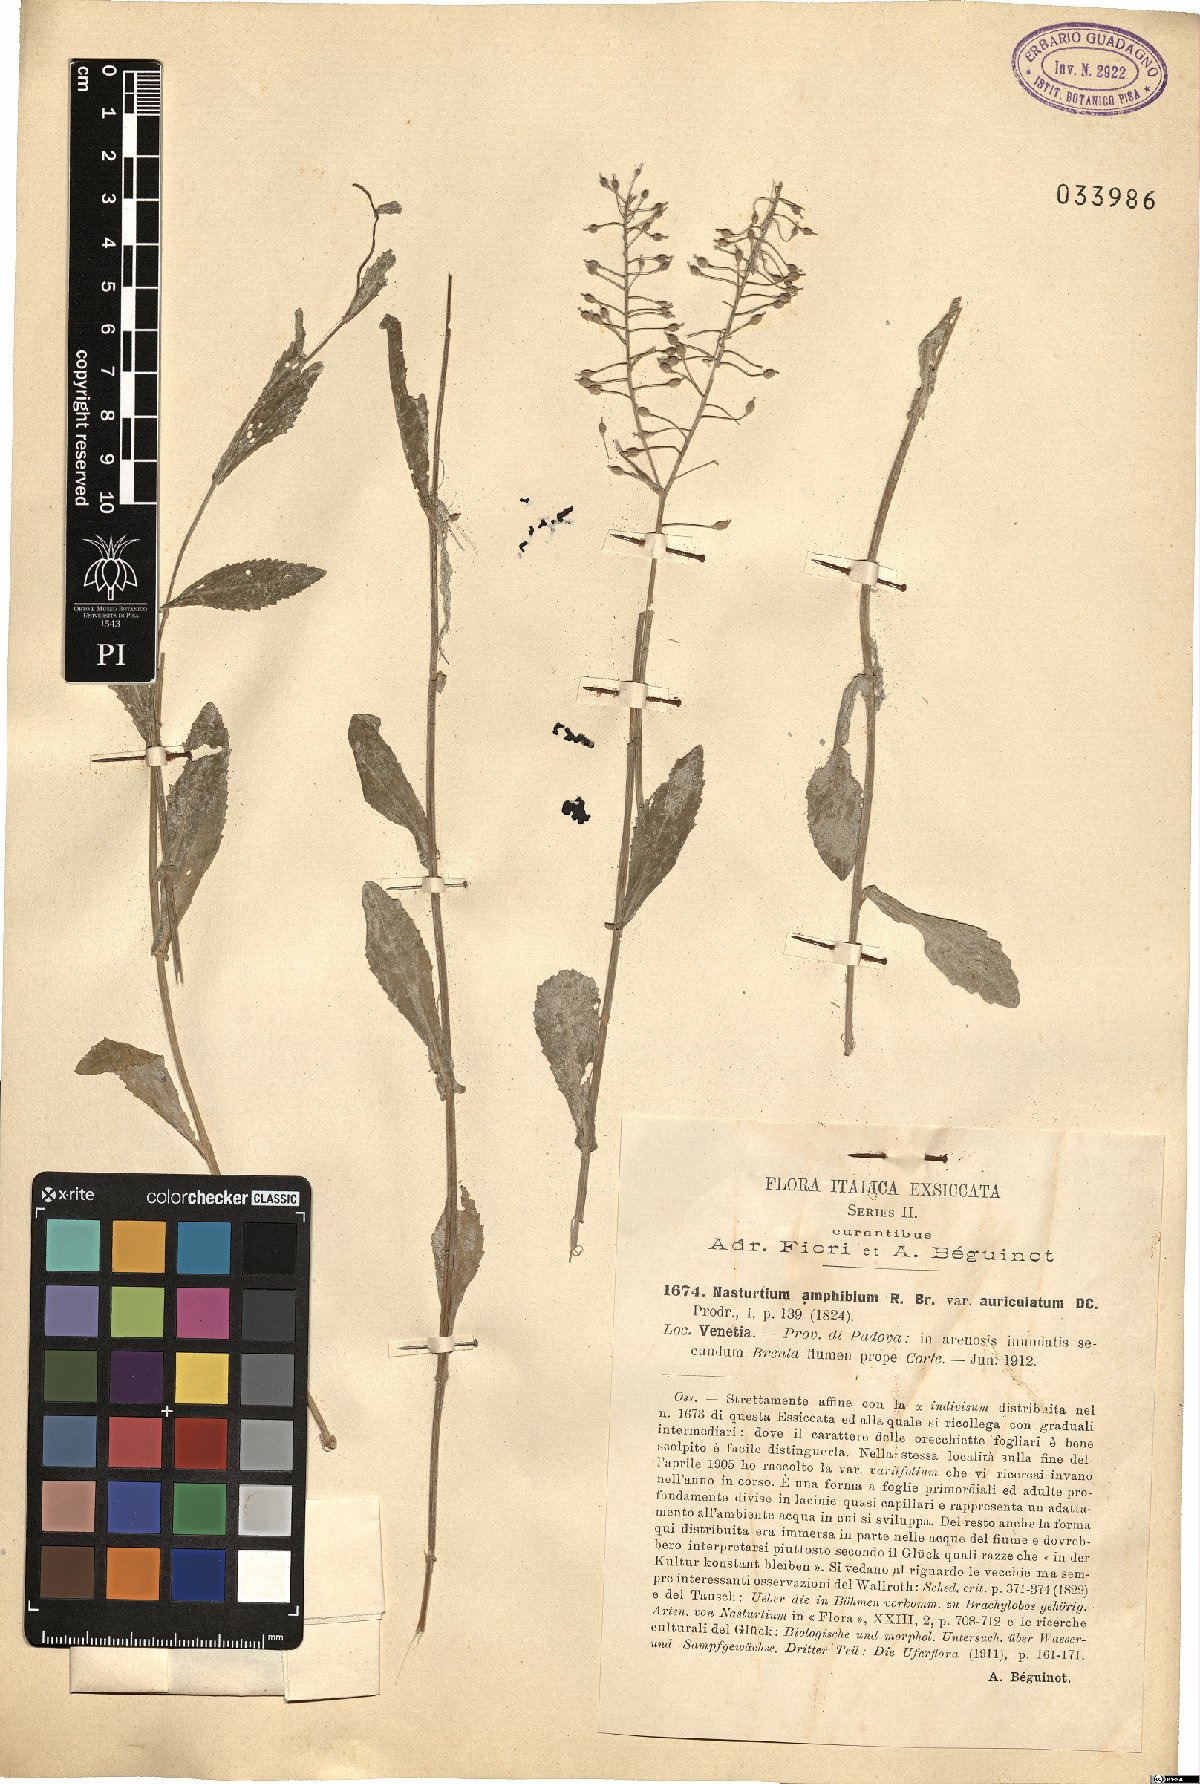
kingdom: Plantae
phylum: Tracheophyta
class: Magnoliopsida
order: Brassicales
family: Brassicaceae
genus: Rorippa
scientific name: Rorippa amphibia
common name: Great yellow-cress
